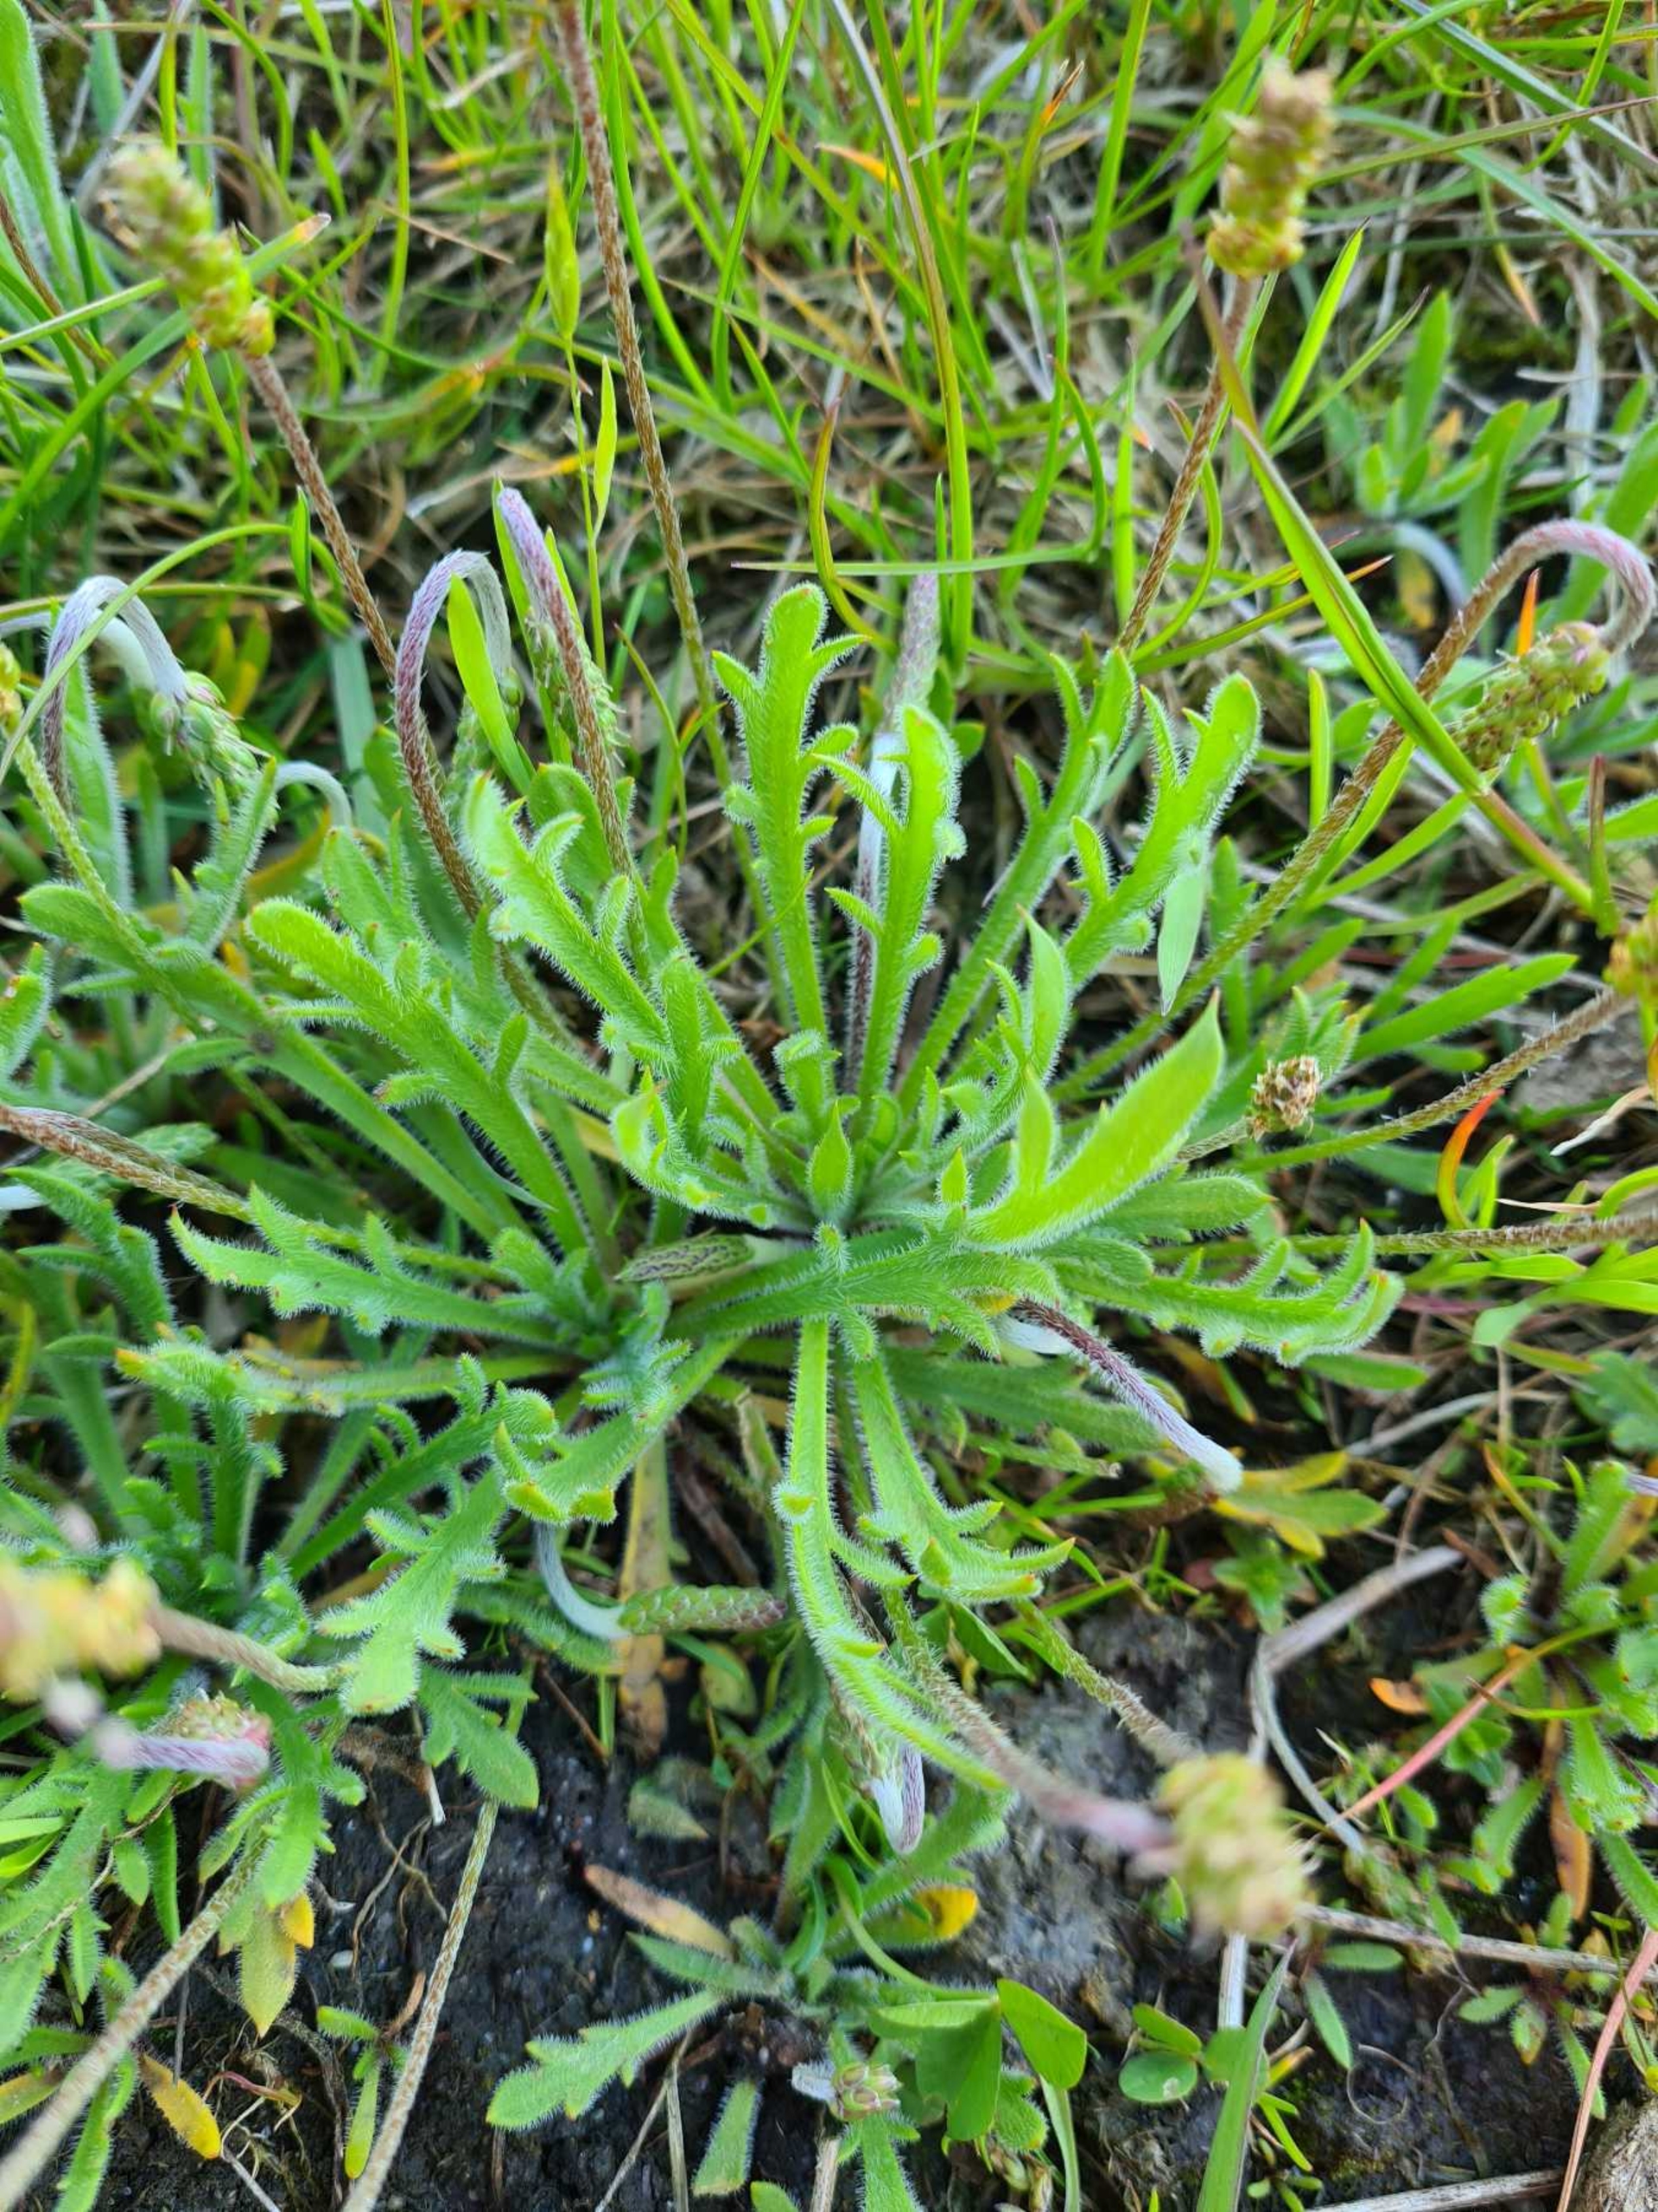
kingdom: Plantae
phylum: Tracheophyta
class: Magnoliopsida
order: Lamiales
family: Plantaginaceae
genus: Plantago
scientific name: Plantago coronopus
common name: Fliget vejbred
